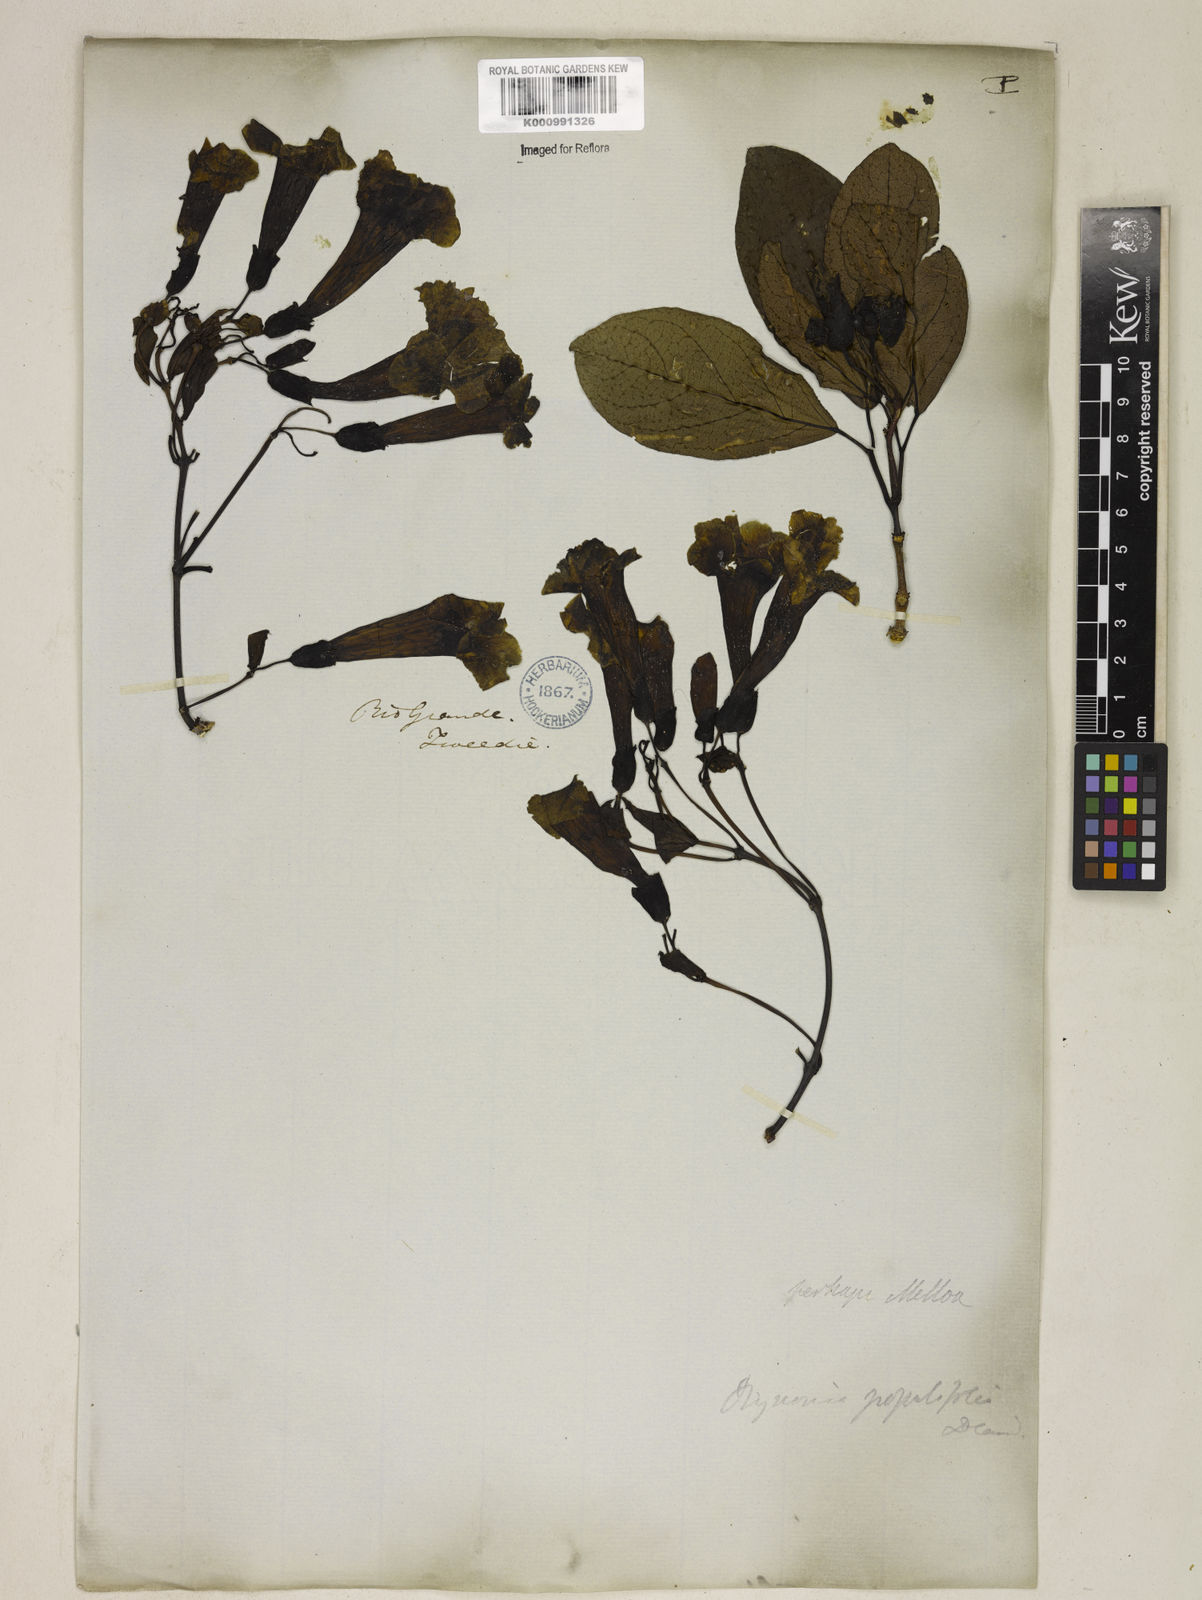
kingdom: Plantae
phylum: Tracheophyta
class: Magnoliopsida
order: Lamiales
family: Bignoniaceae
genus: Dolichandra
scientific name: Dolichandra
